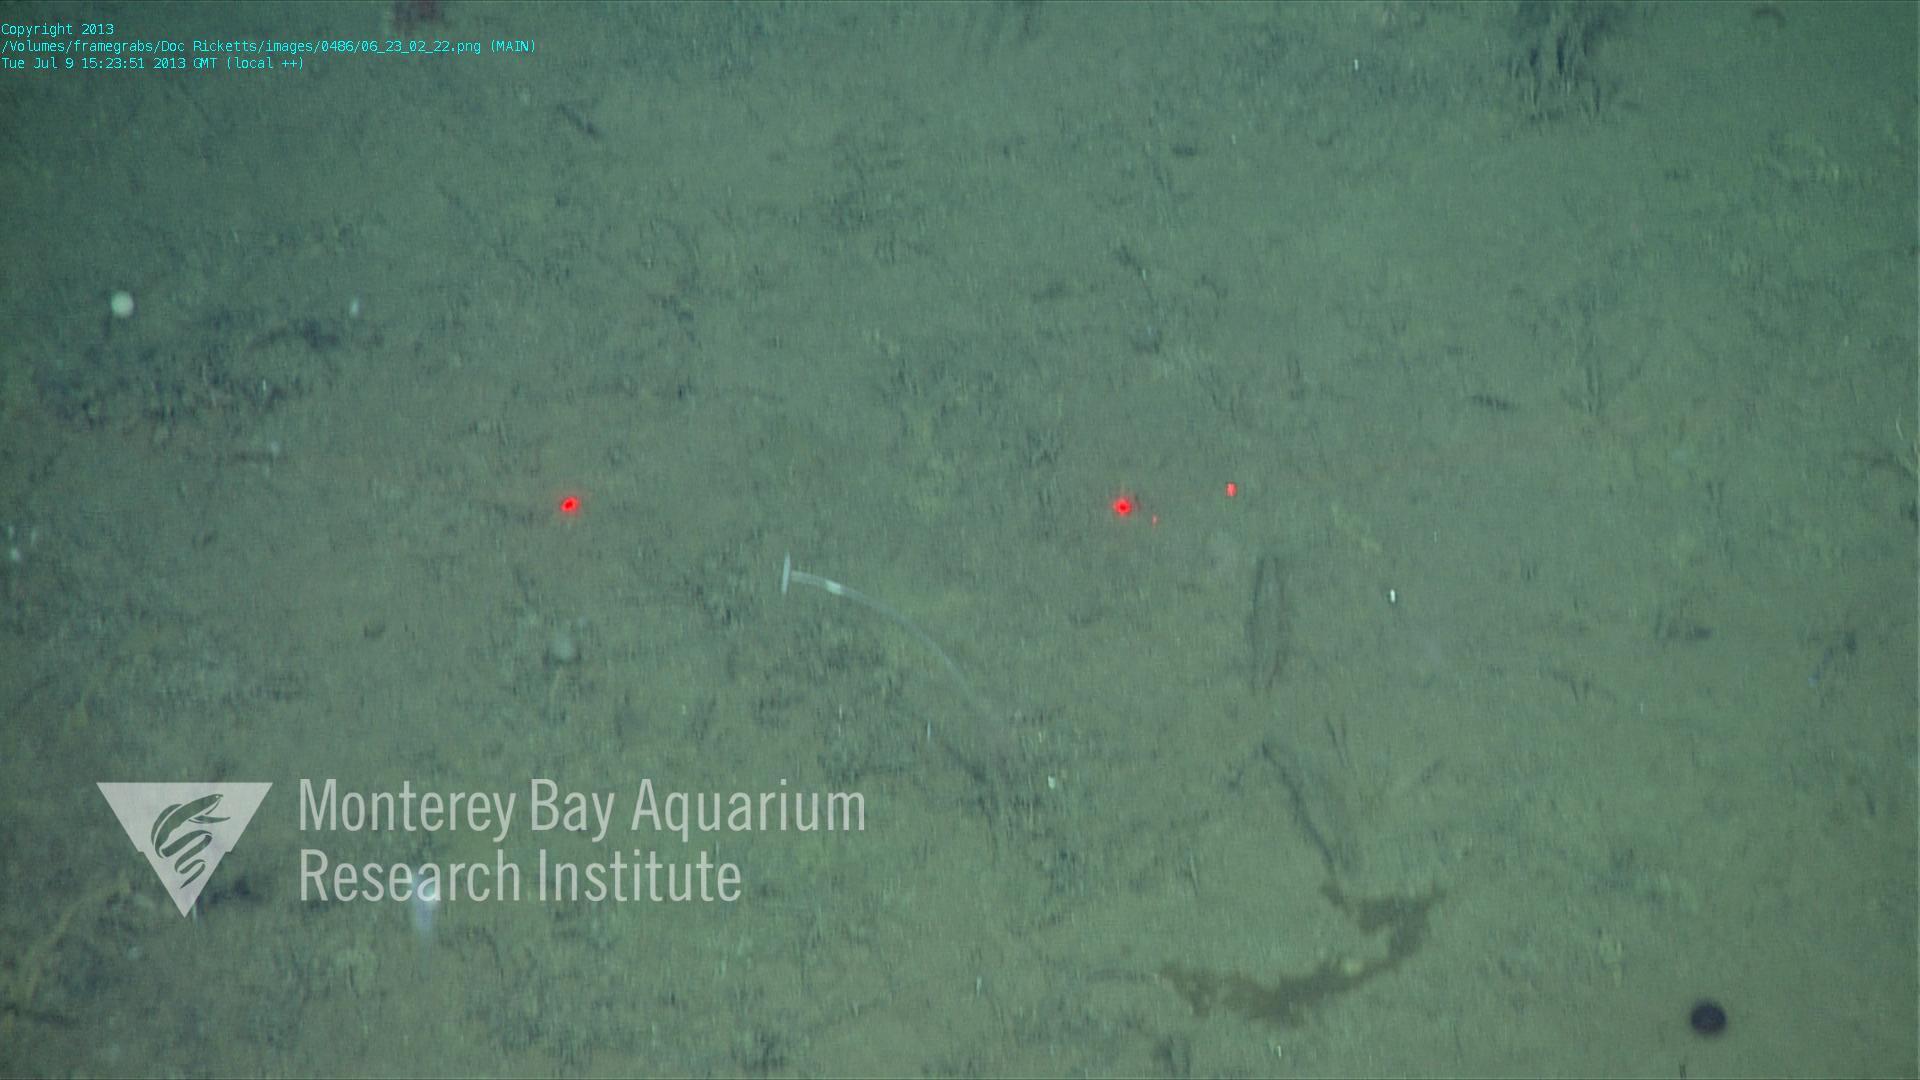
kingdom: Animalia
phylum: Porifera
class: Demospongiae
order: Poecilosclerida
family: Cladorhizidae
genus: Cladorhiza
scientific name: Cladorhiza
